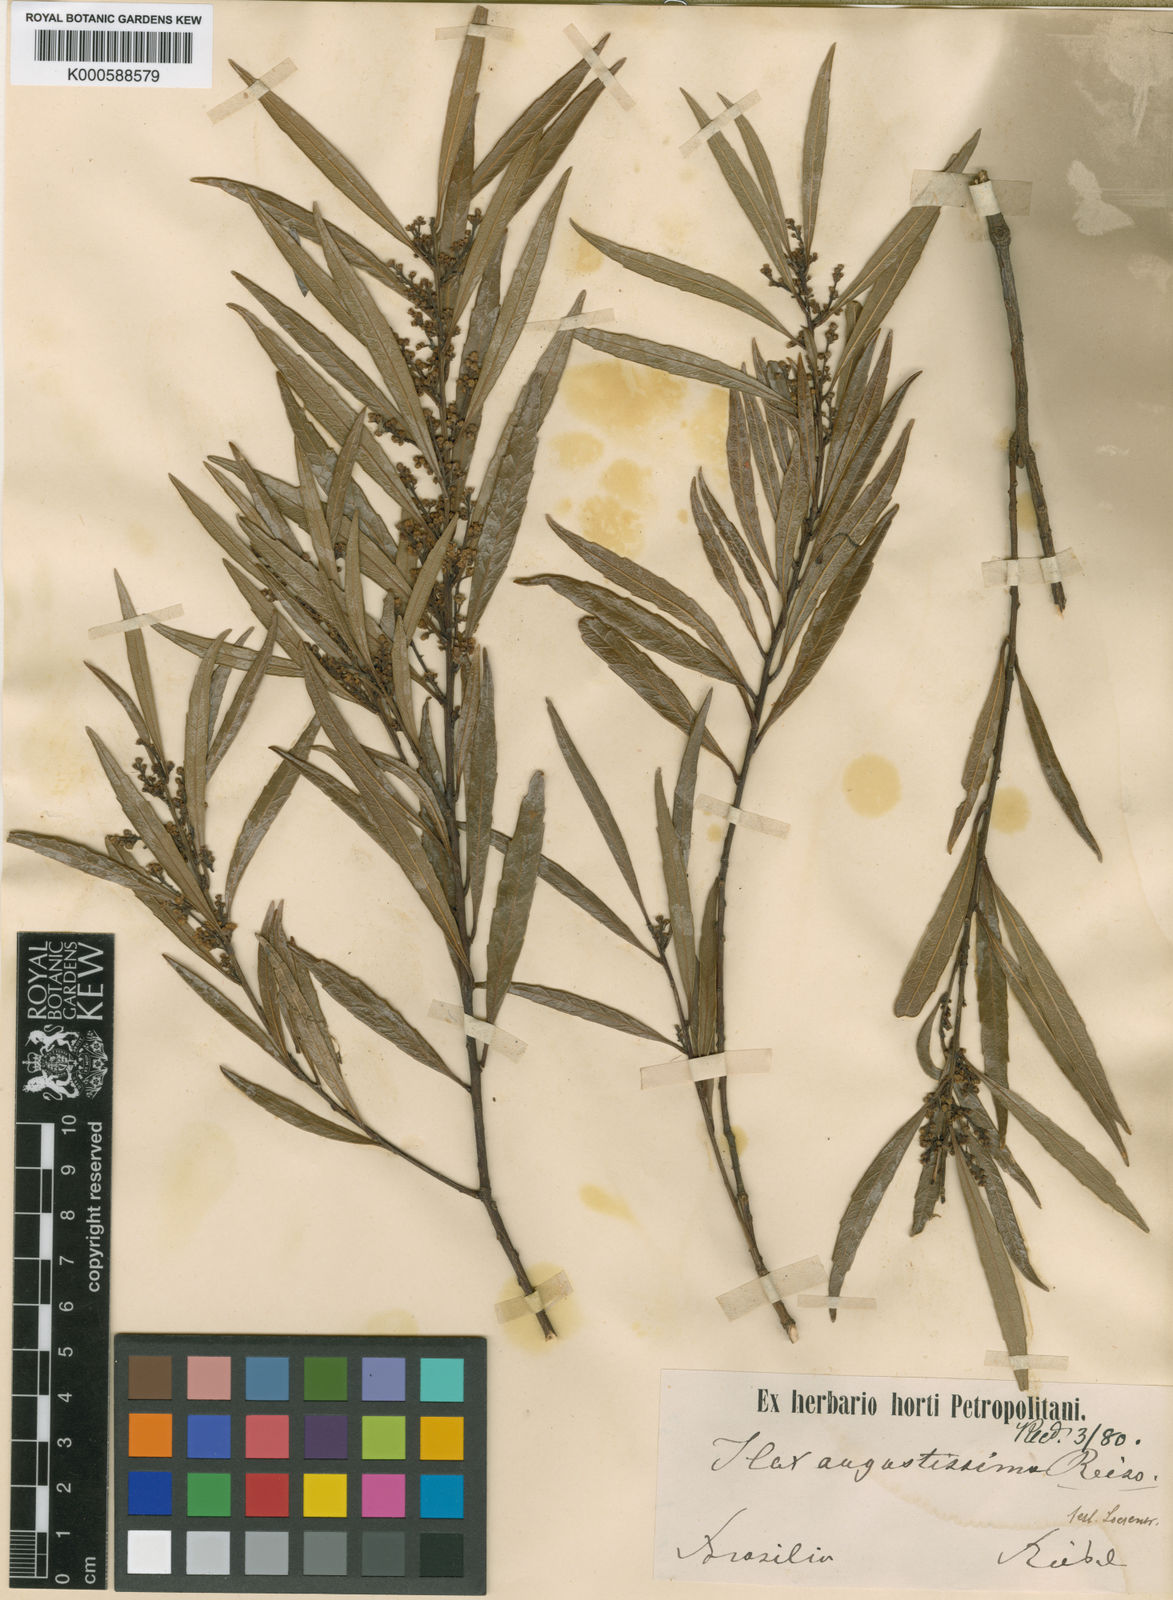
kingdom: Plantae
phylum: Tracheophyta
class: Magnoliopsida
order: Aquifoliales
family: Aquifoliaceae
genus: Ilex
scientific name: Ilex affinis
